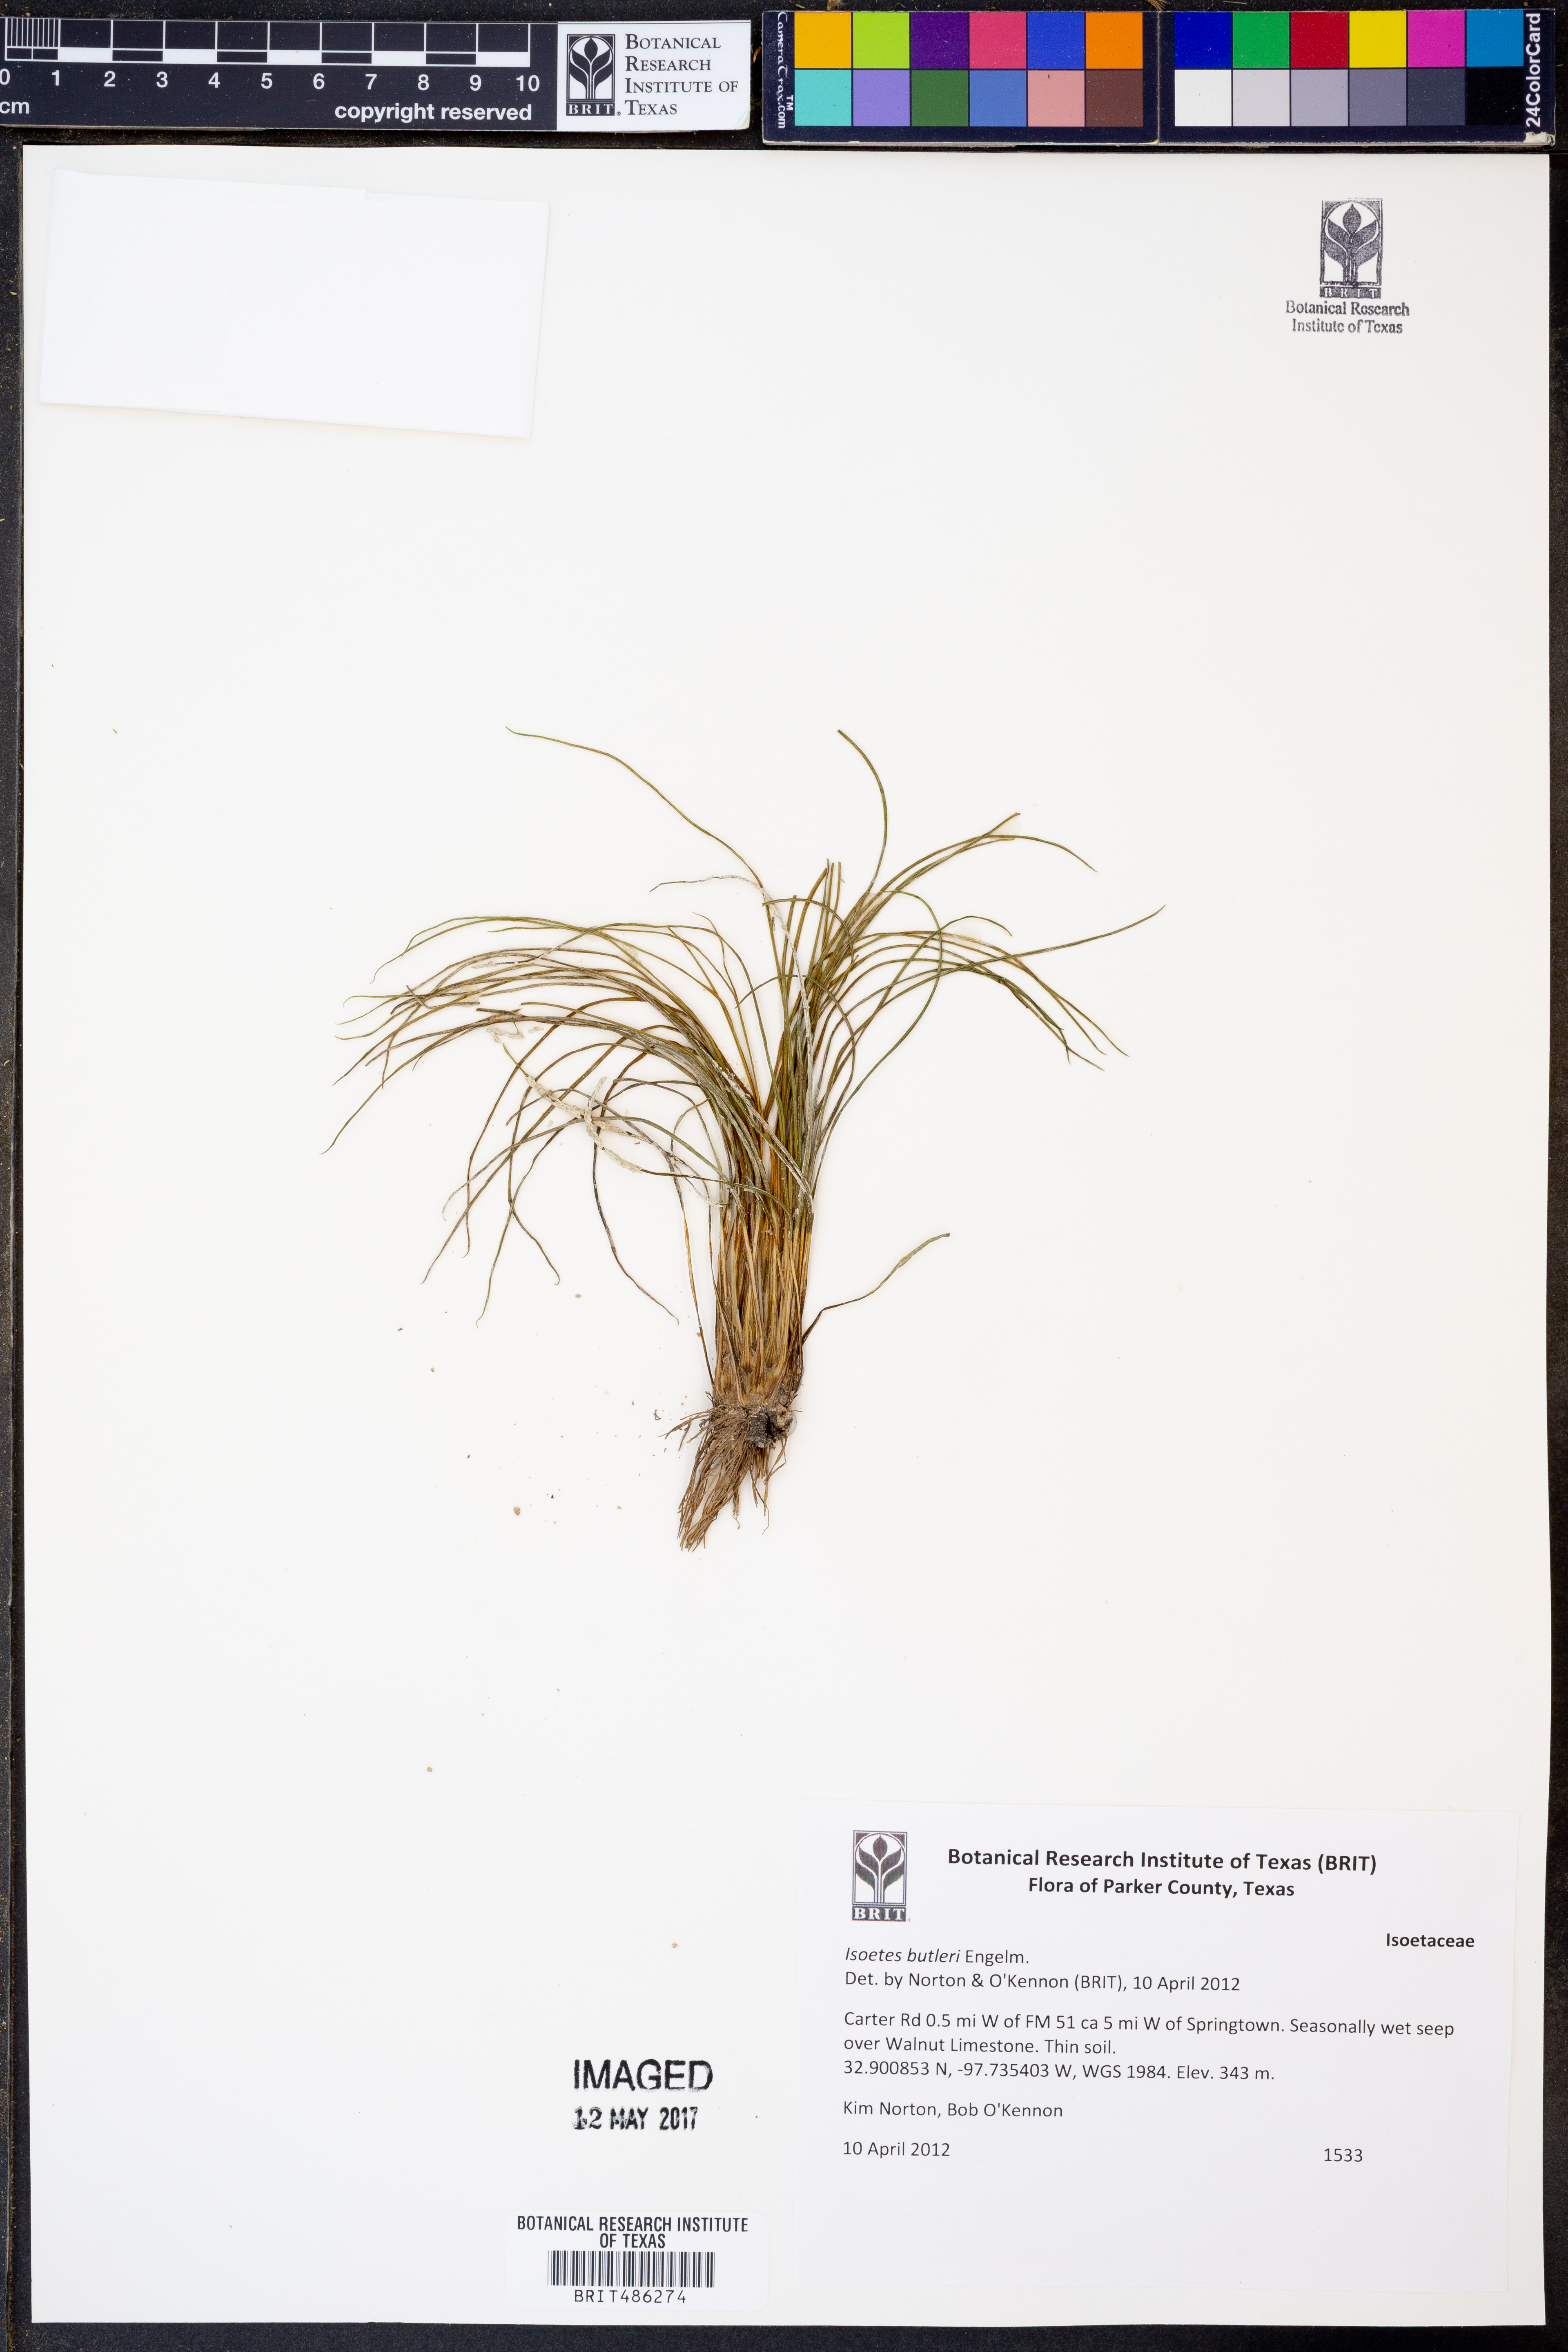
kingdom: Plantae
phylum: Tracheophyta
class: Lycopodiopsida
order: Isoetales
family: Isoetaceae
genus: Isoetes
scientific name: Isoetes butleri
